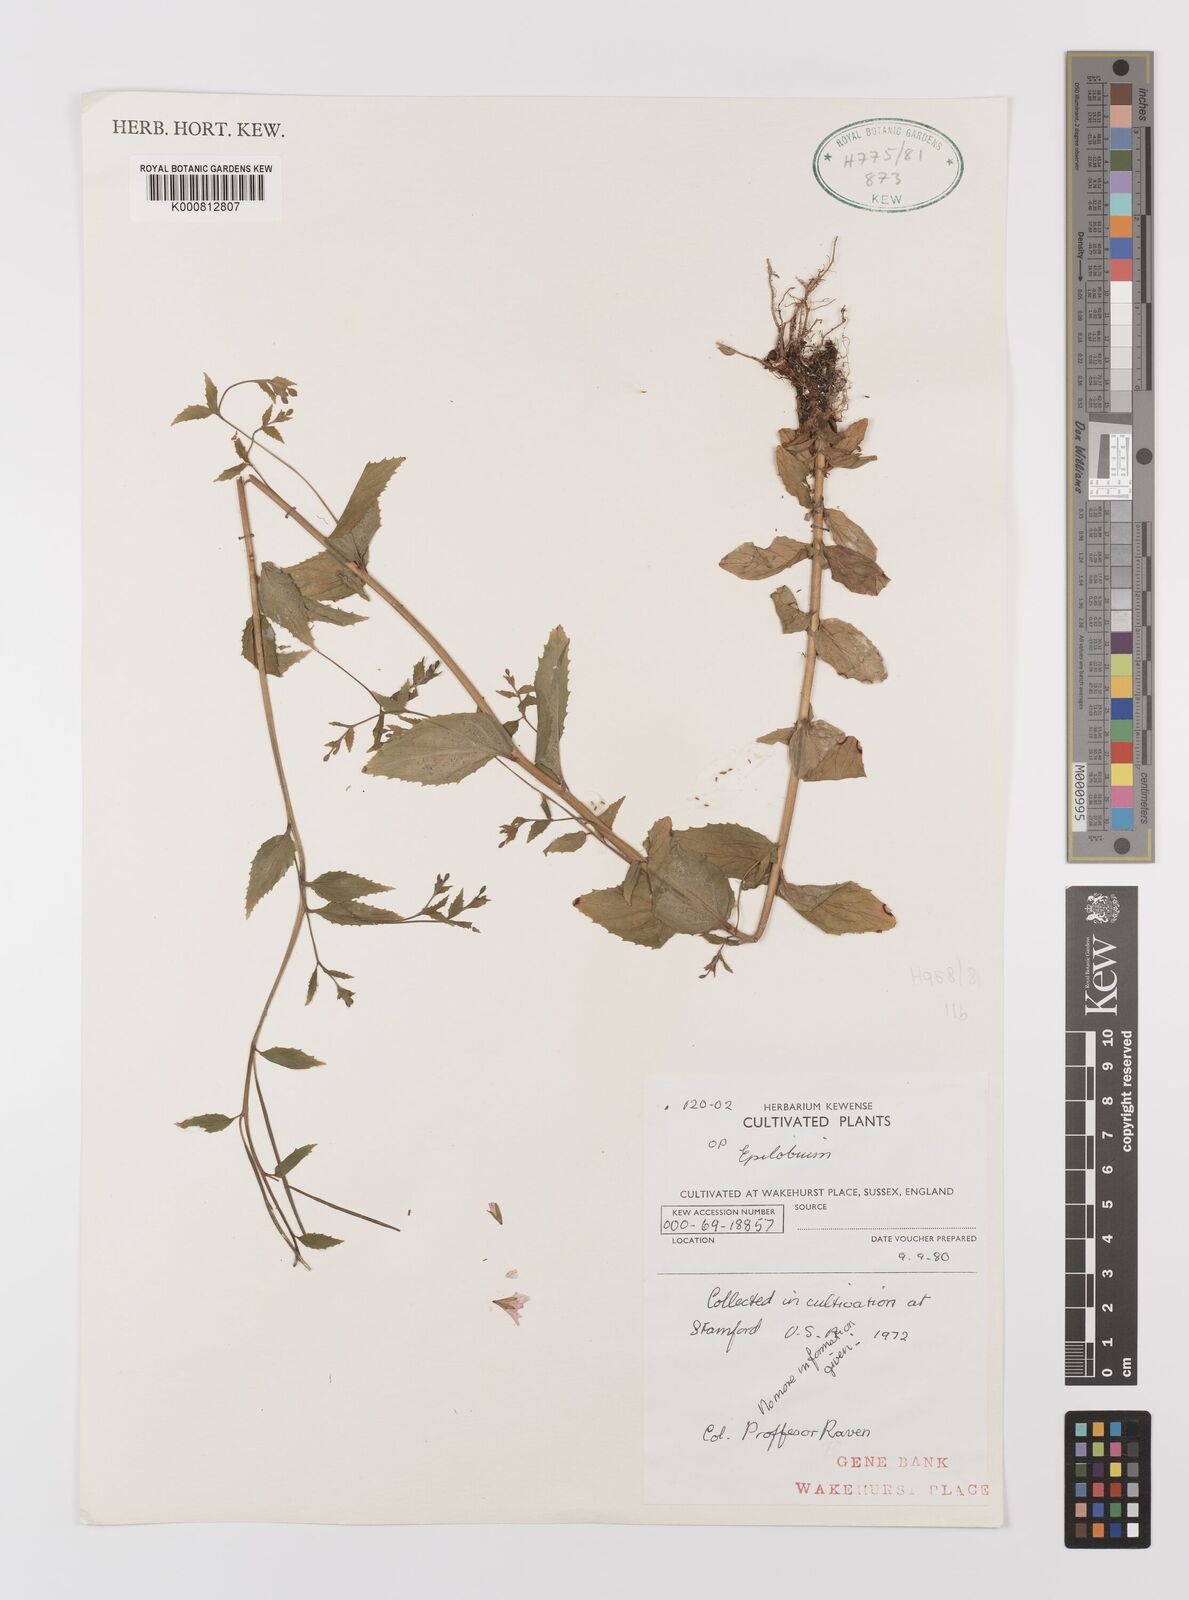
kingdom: Plantae
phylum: Tracheophyta
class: Magnoliopsida
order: Myrtales
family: Onagraceae
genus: Epilobium
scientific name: Epilobium montanum
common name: Broad-leaved willowherb
